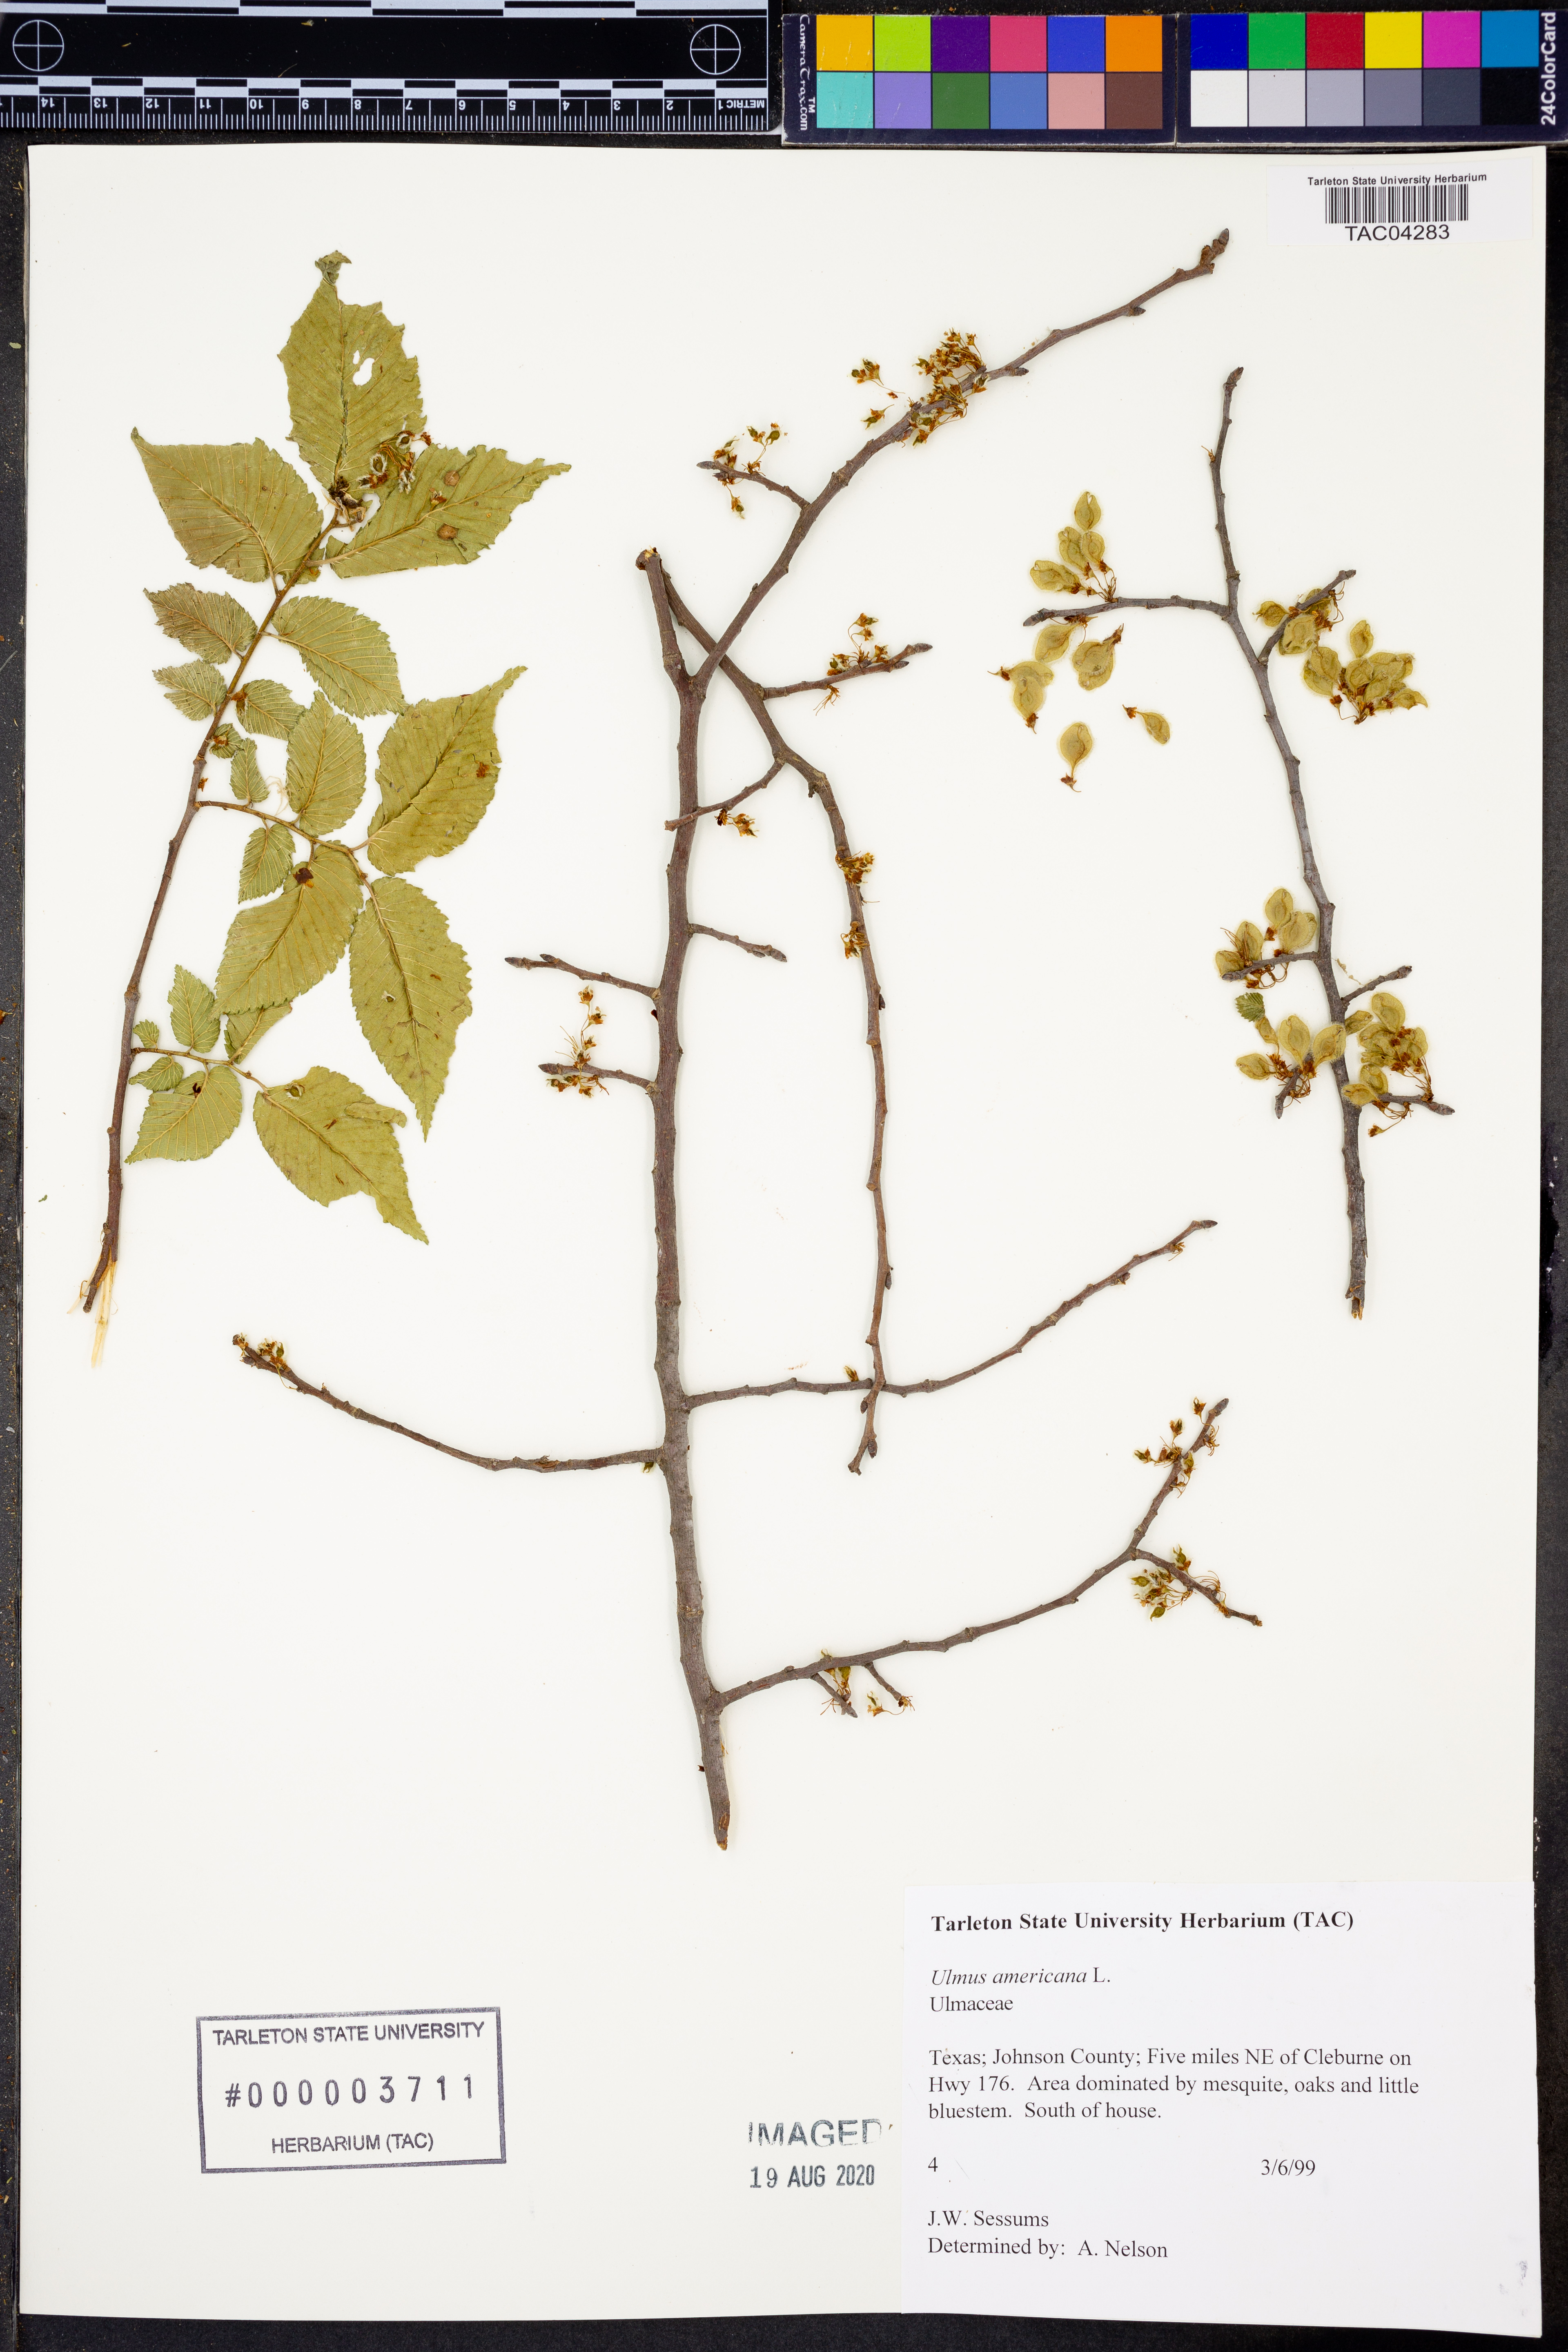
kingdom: Plantae
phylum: Tracheophyta
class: Magnoliopsida
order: Rosales
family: Ulmaceae
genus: Ulmus
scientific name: Ulmus americana
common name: American elm
